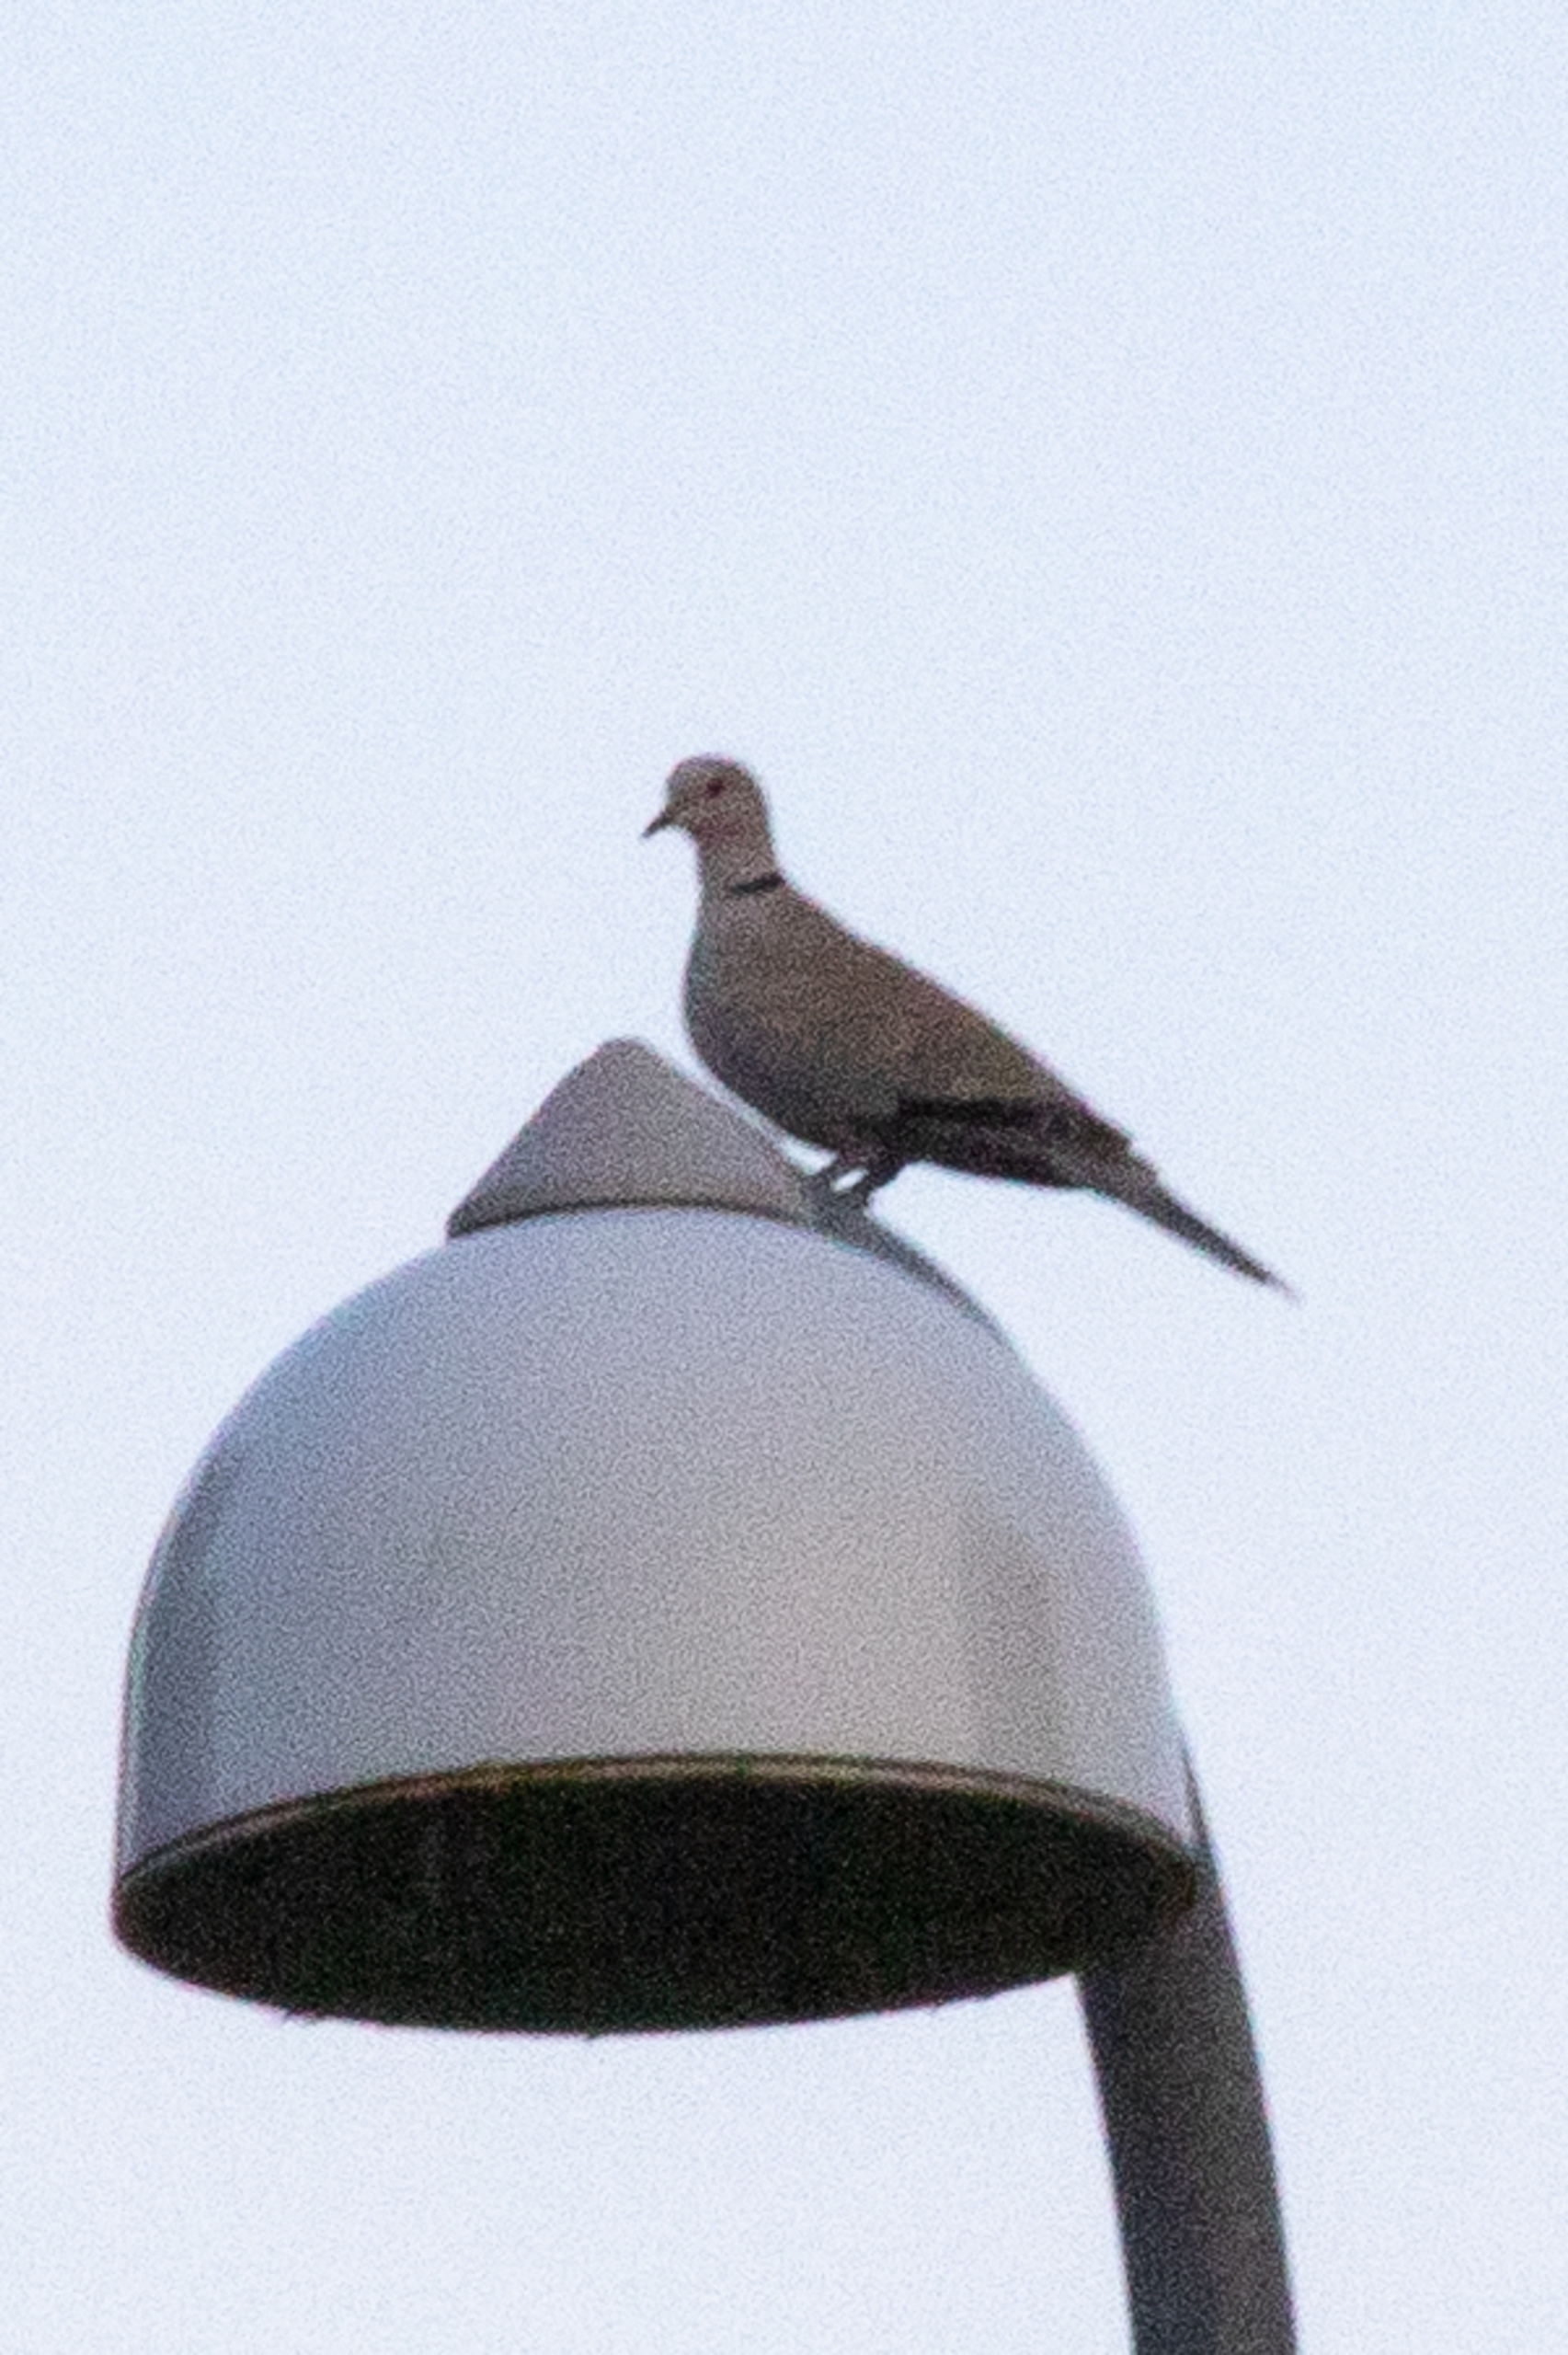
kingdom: Animalia
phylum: Chordata
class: Aves
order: Columbiformes
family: Columbidae
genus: Streptopelia
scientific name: Streptopelia decaocto
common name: Tyrkerdue
